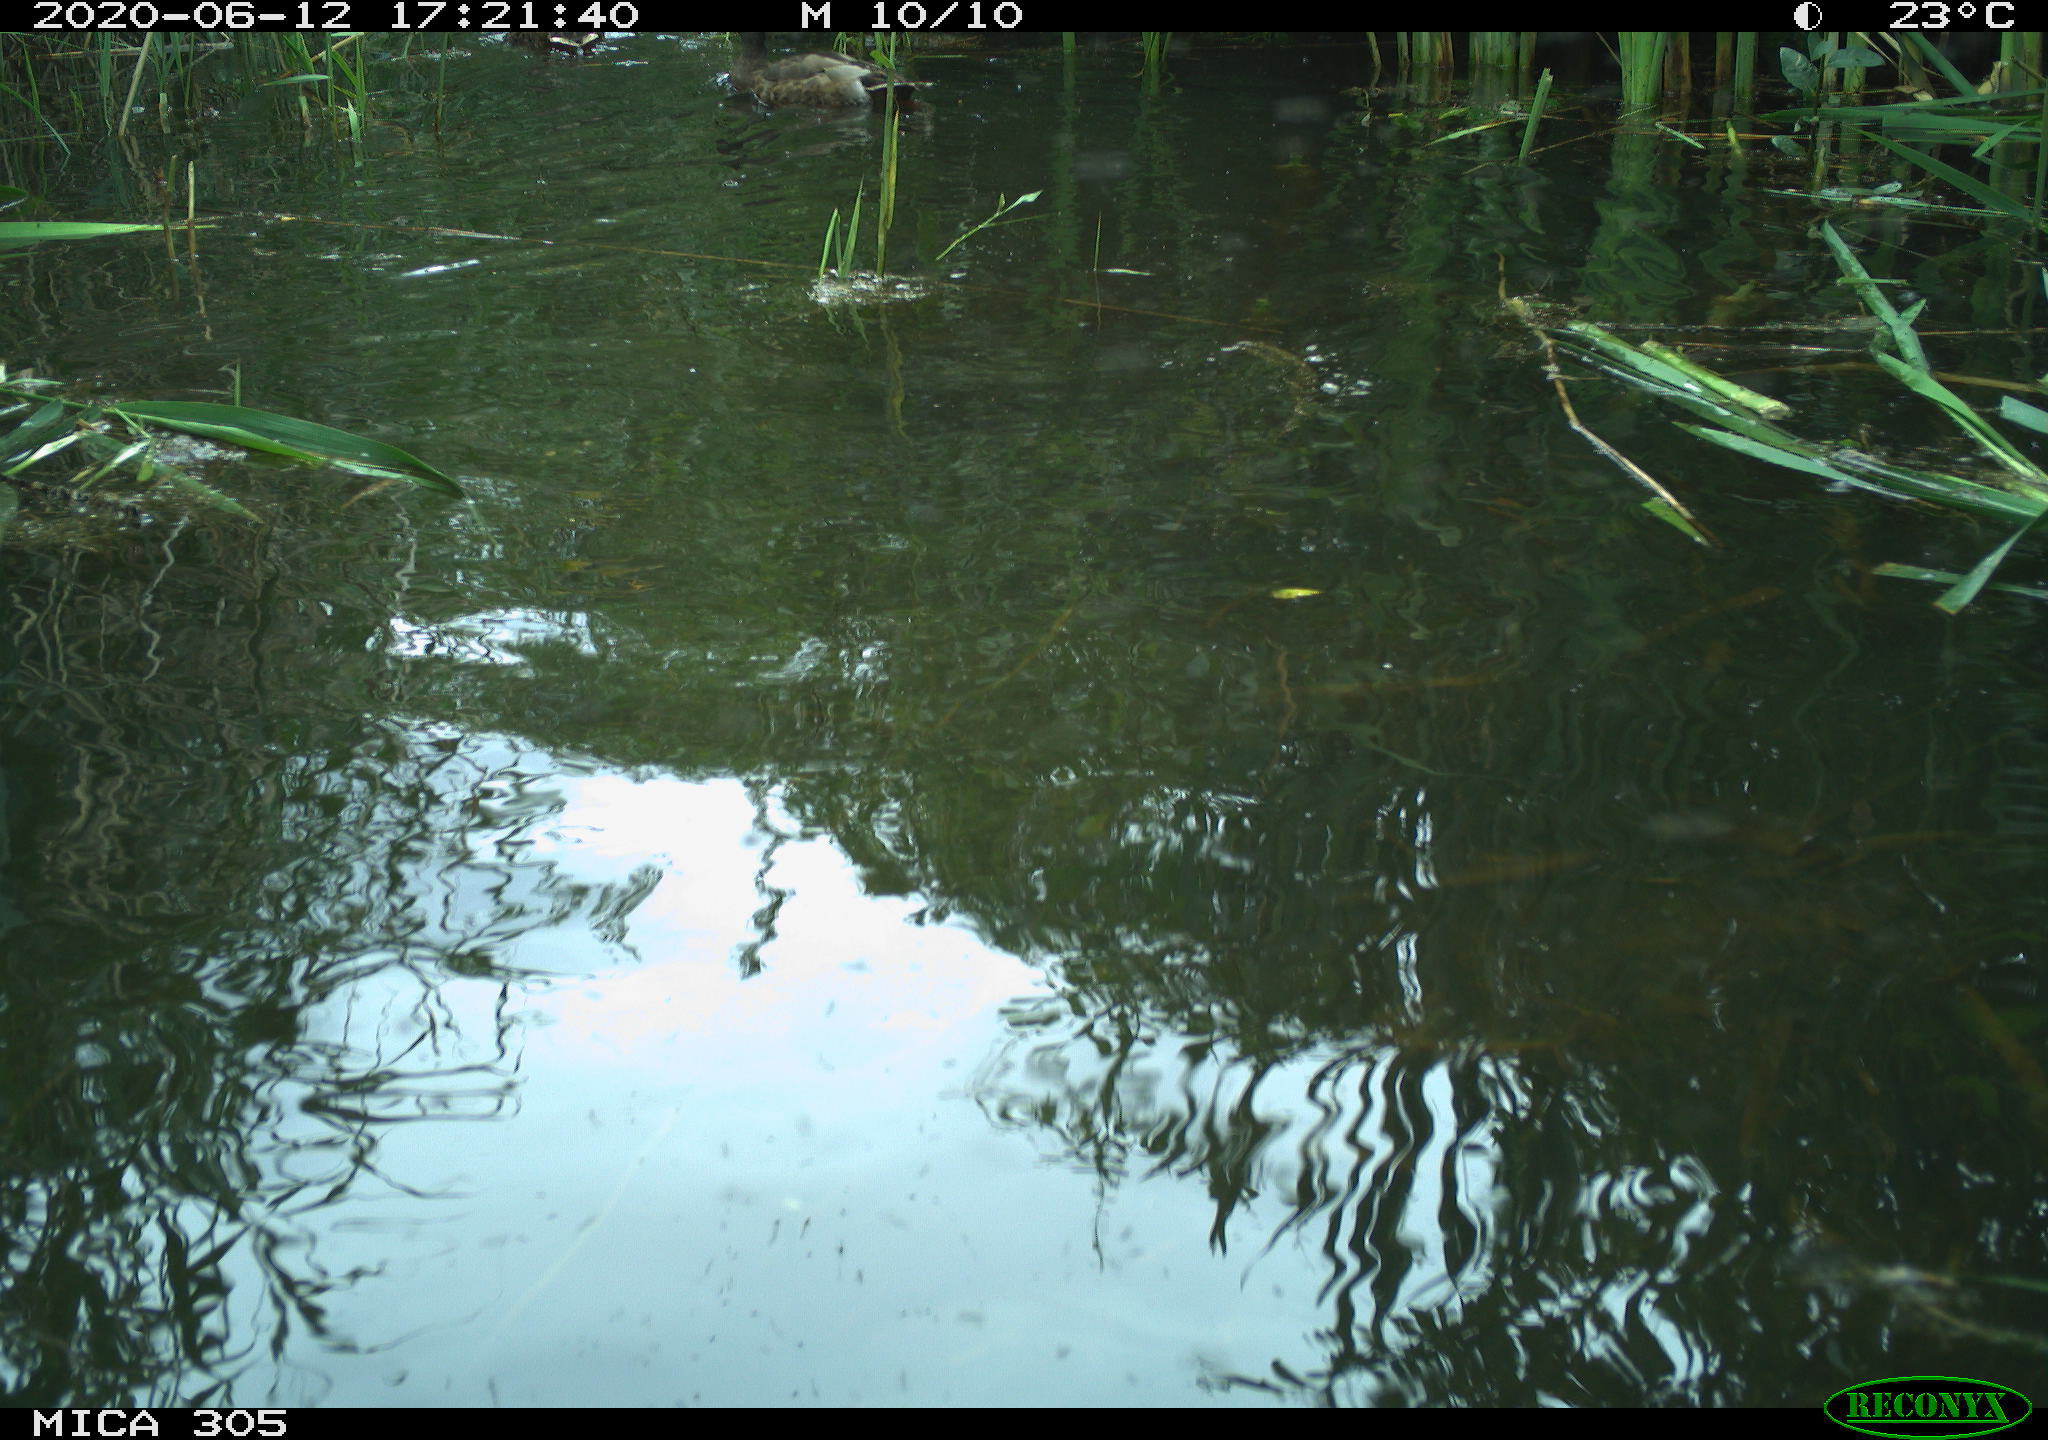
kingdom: Animalia
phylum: Chordata
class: Aves
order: Anseriformes
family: Anatidae
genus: Anas
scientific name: Anas platyrhynchos
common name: Mallard
